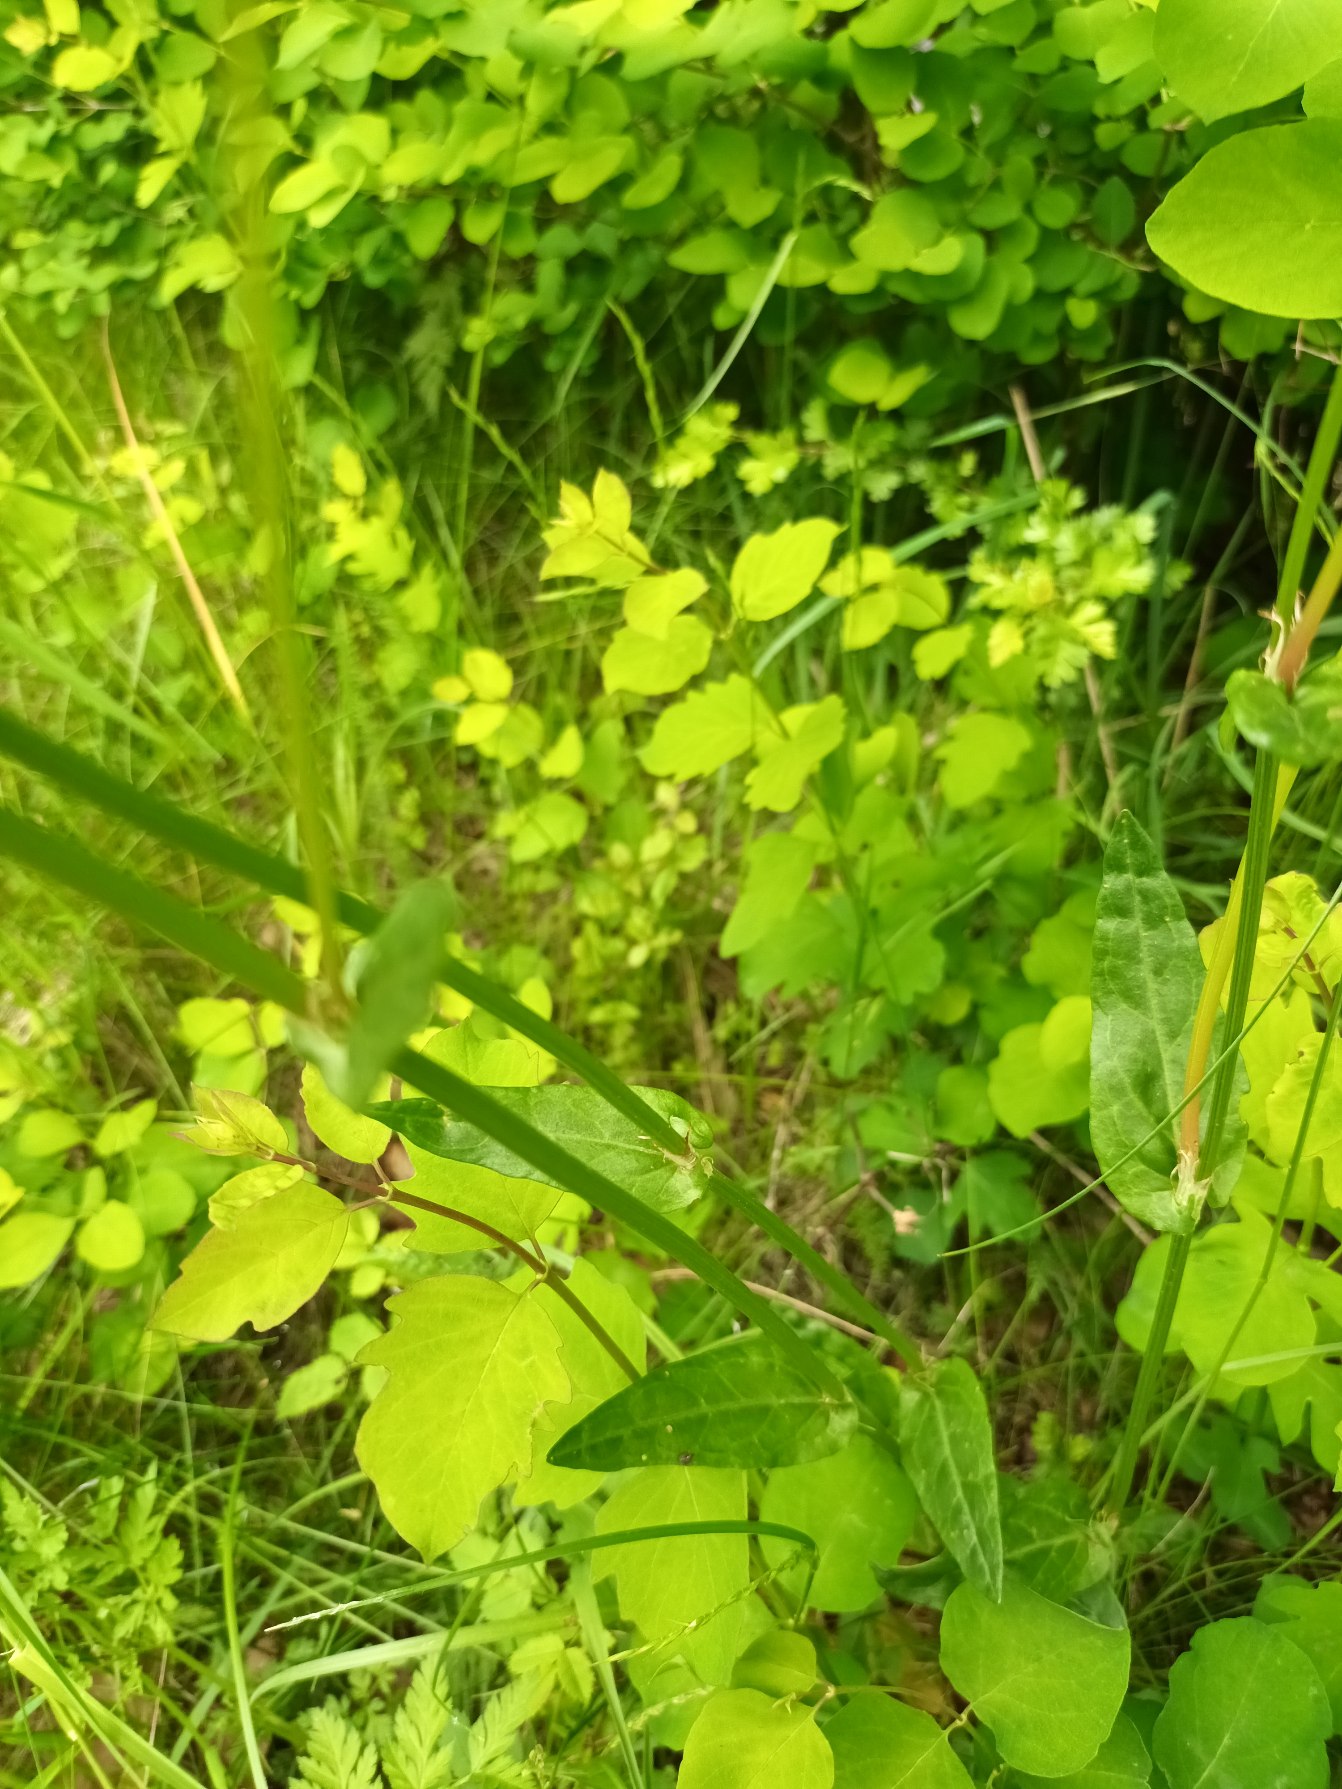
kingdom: Plantae
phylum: Tracheophyta
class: Magnoliopsida
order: Caryophyllales
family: Polygonaceae
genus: Rumex
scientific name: Rumex acetosa
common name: Almindelig syre
